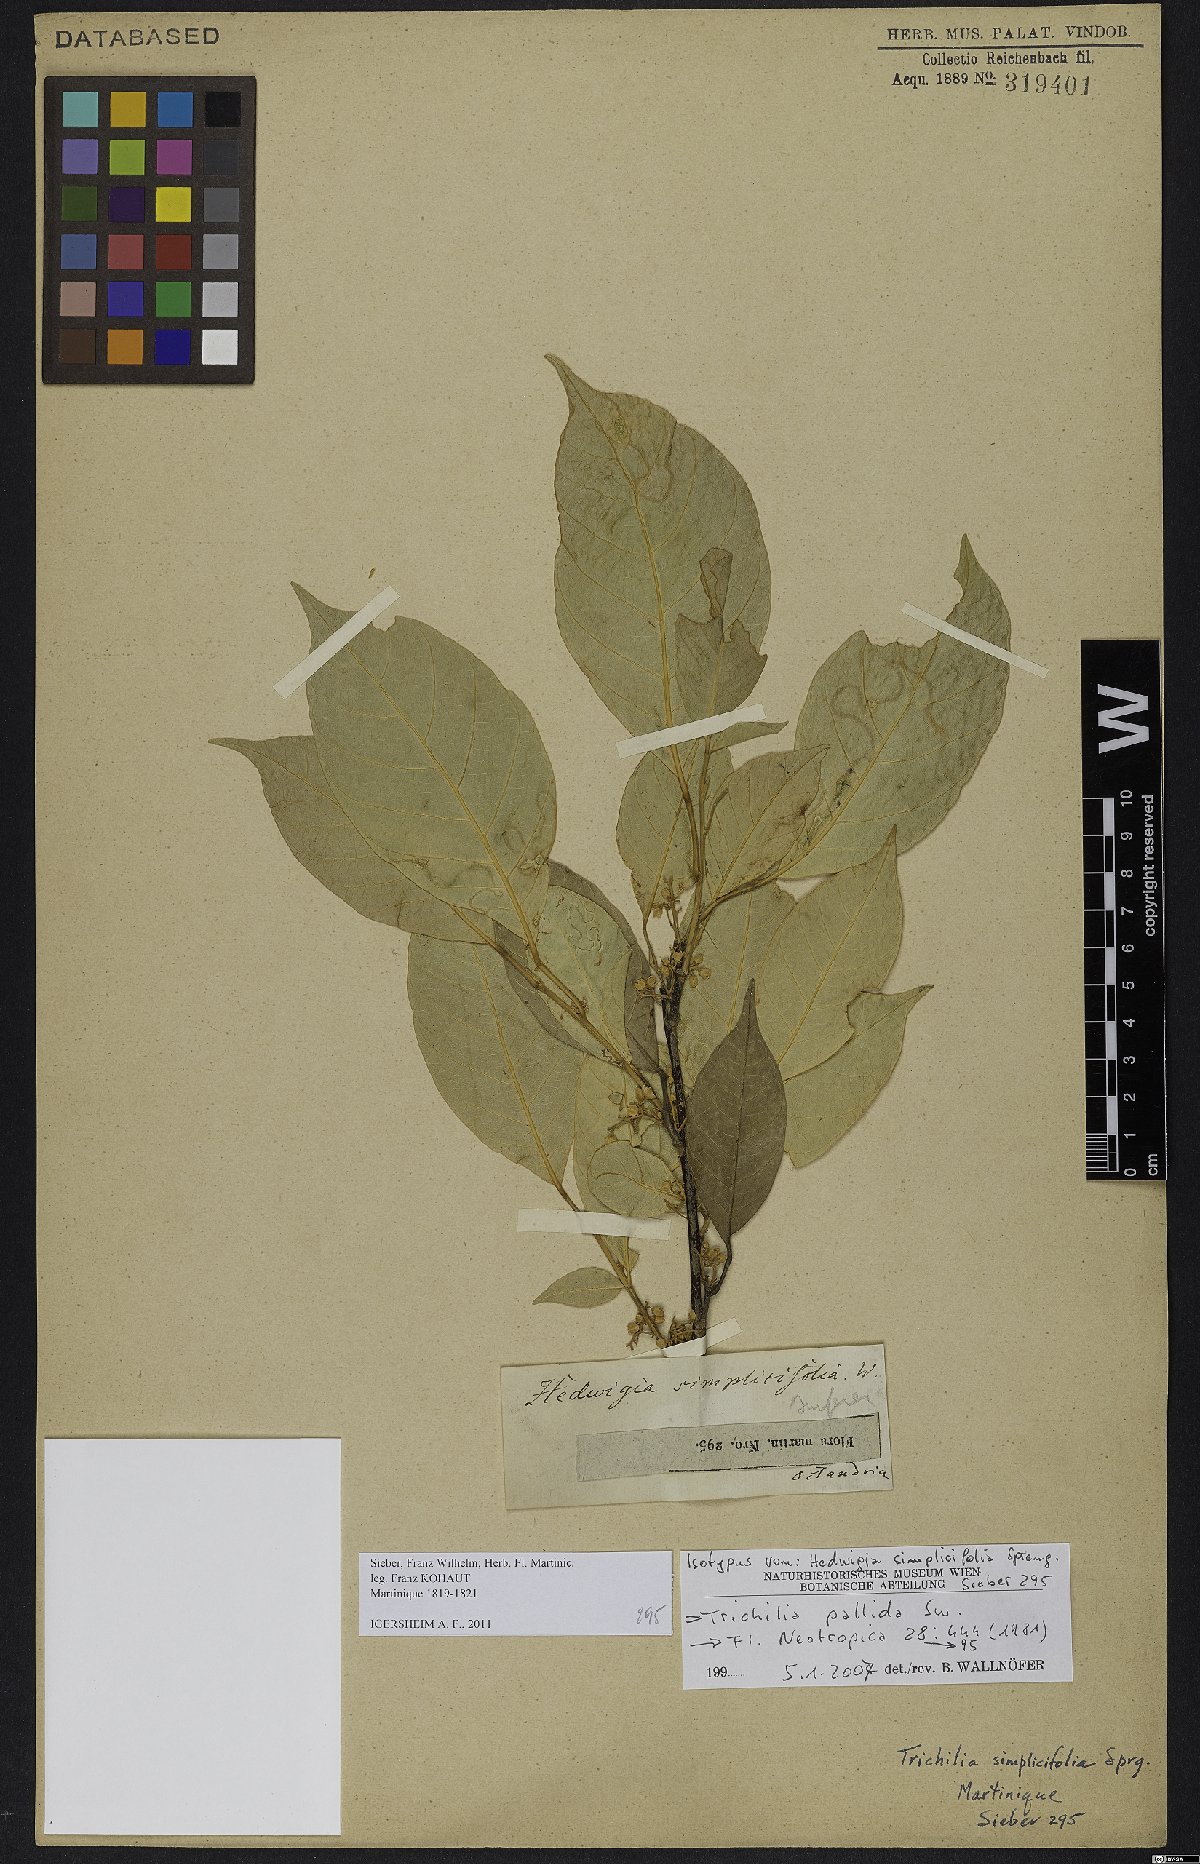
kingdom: Plantae
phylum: Tracheophyta
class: Magnoliopsida
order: Sapindales
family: Meliaceae
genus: Trichilia
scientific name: Trichilia pallida
